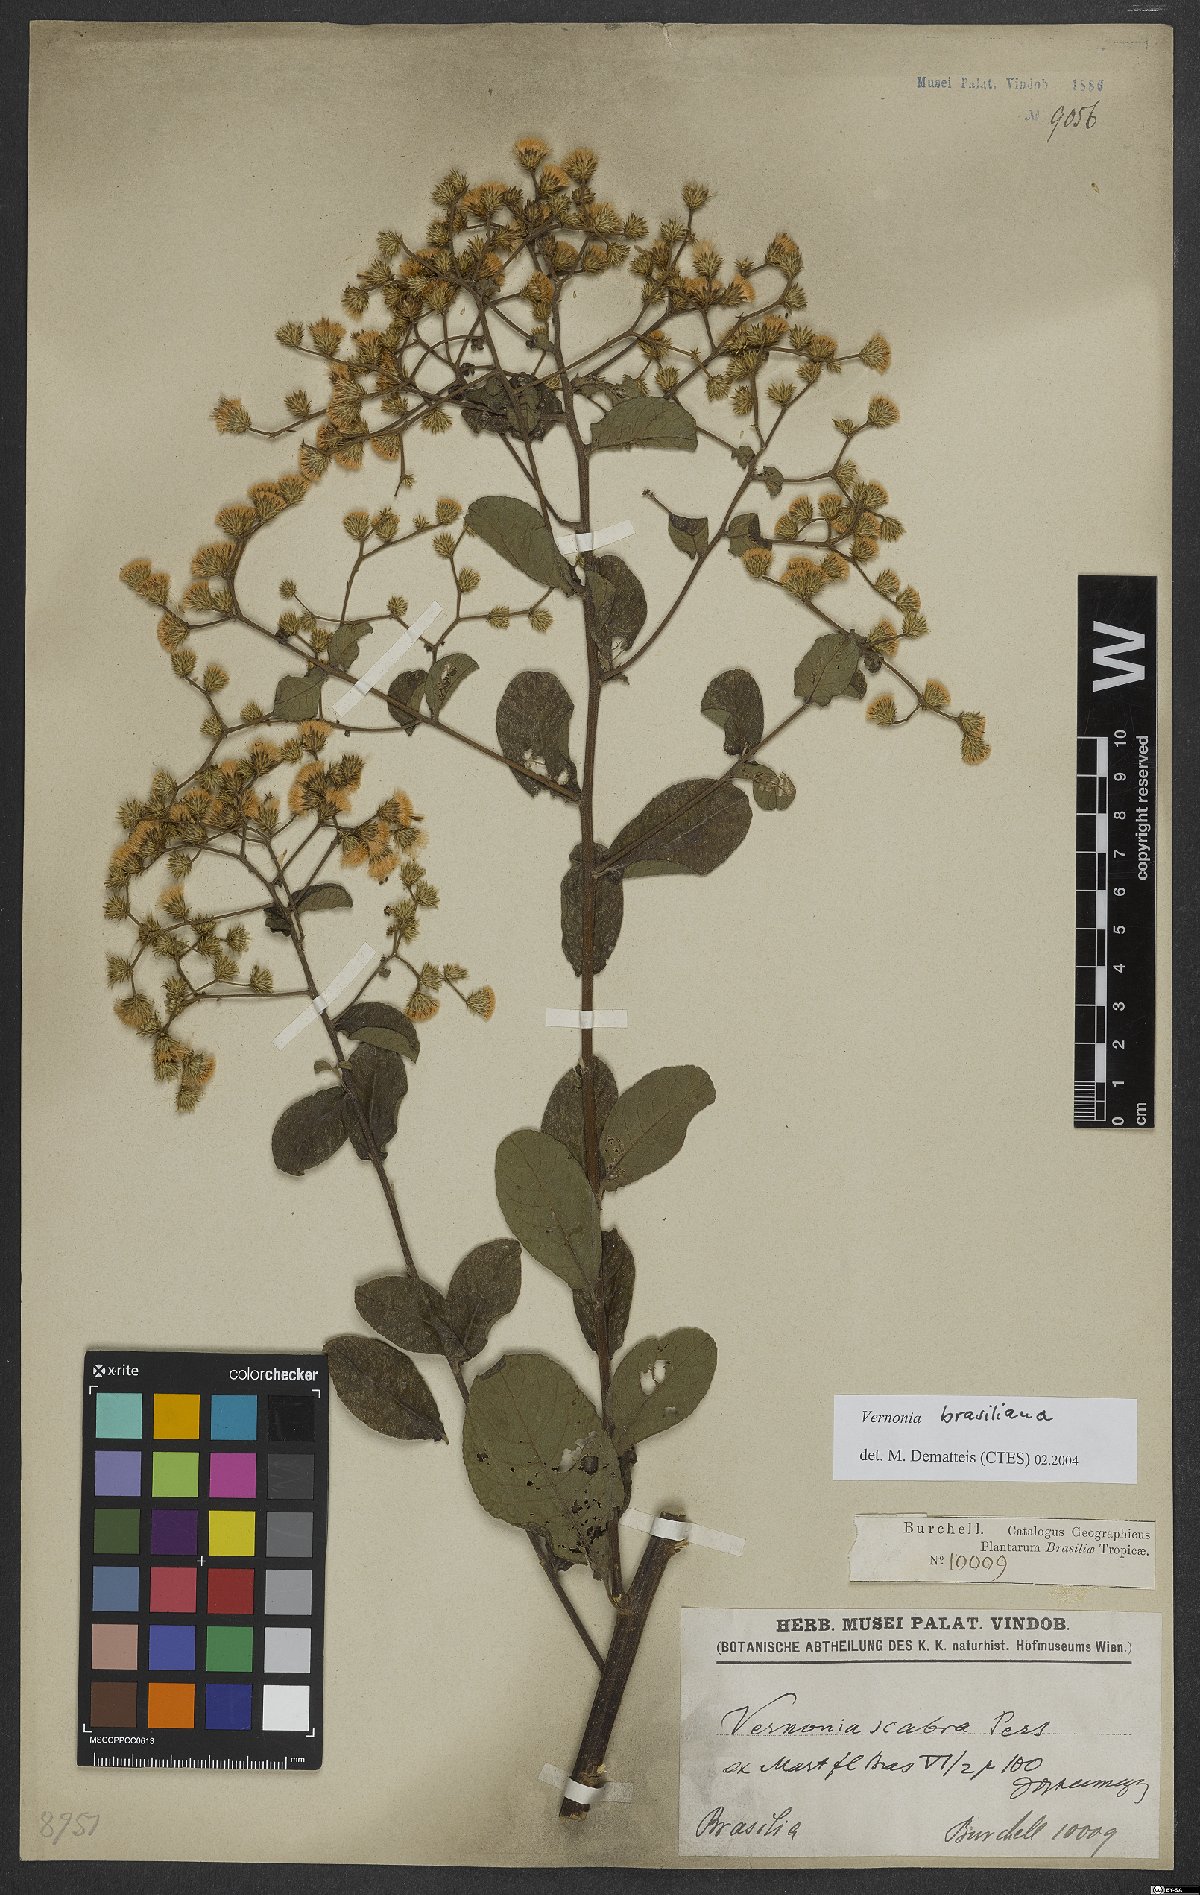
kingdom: Plantae
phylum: Tracheophyta
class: Magnoliopsida
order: Asterales
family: Asteraceae
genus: Vernonanthura
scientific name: Vernonanthura brasiliana
